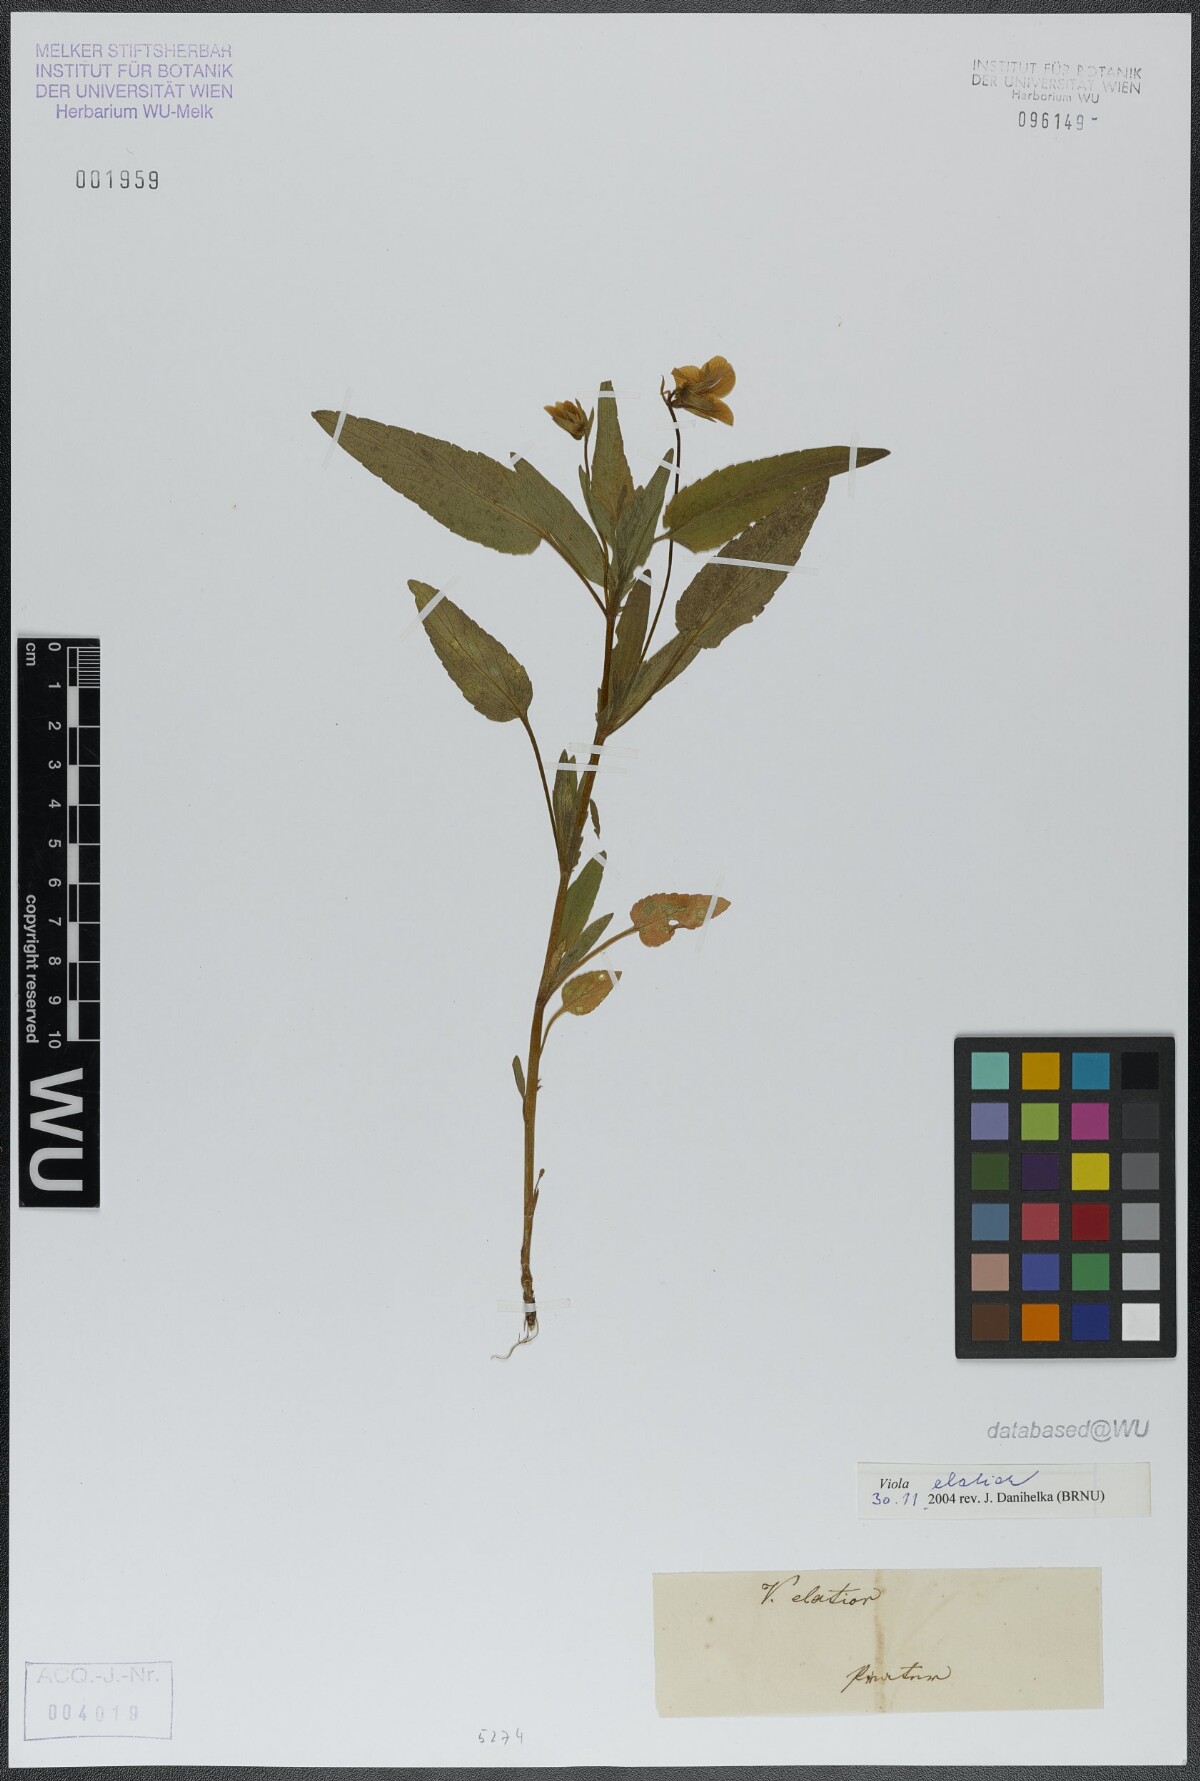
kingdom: Plantae
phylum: Tracheophyta
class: Magnoliopsida
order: Malpighiales
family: Violaceae
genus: Viola
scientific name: Viola elatior
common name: Tall violet
